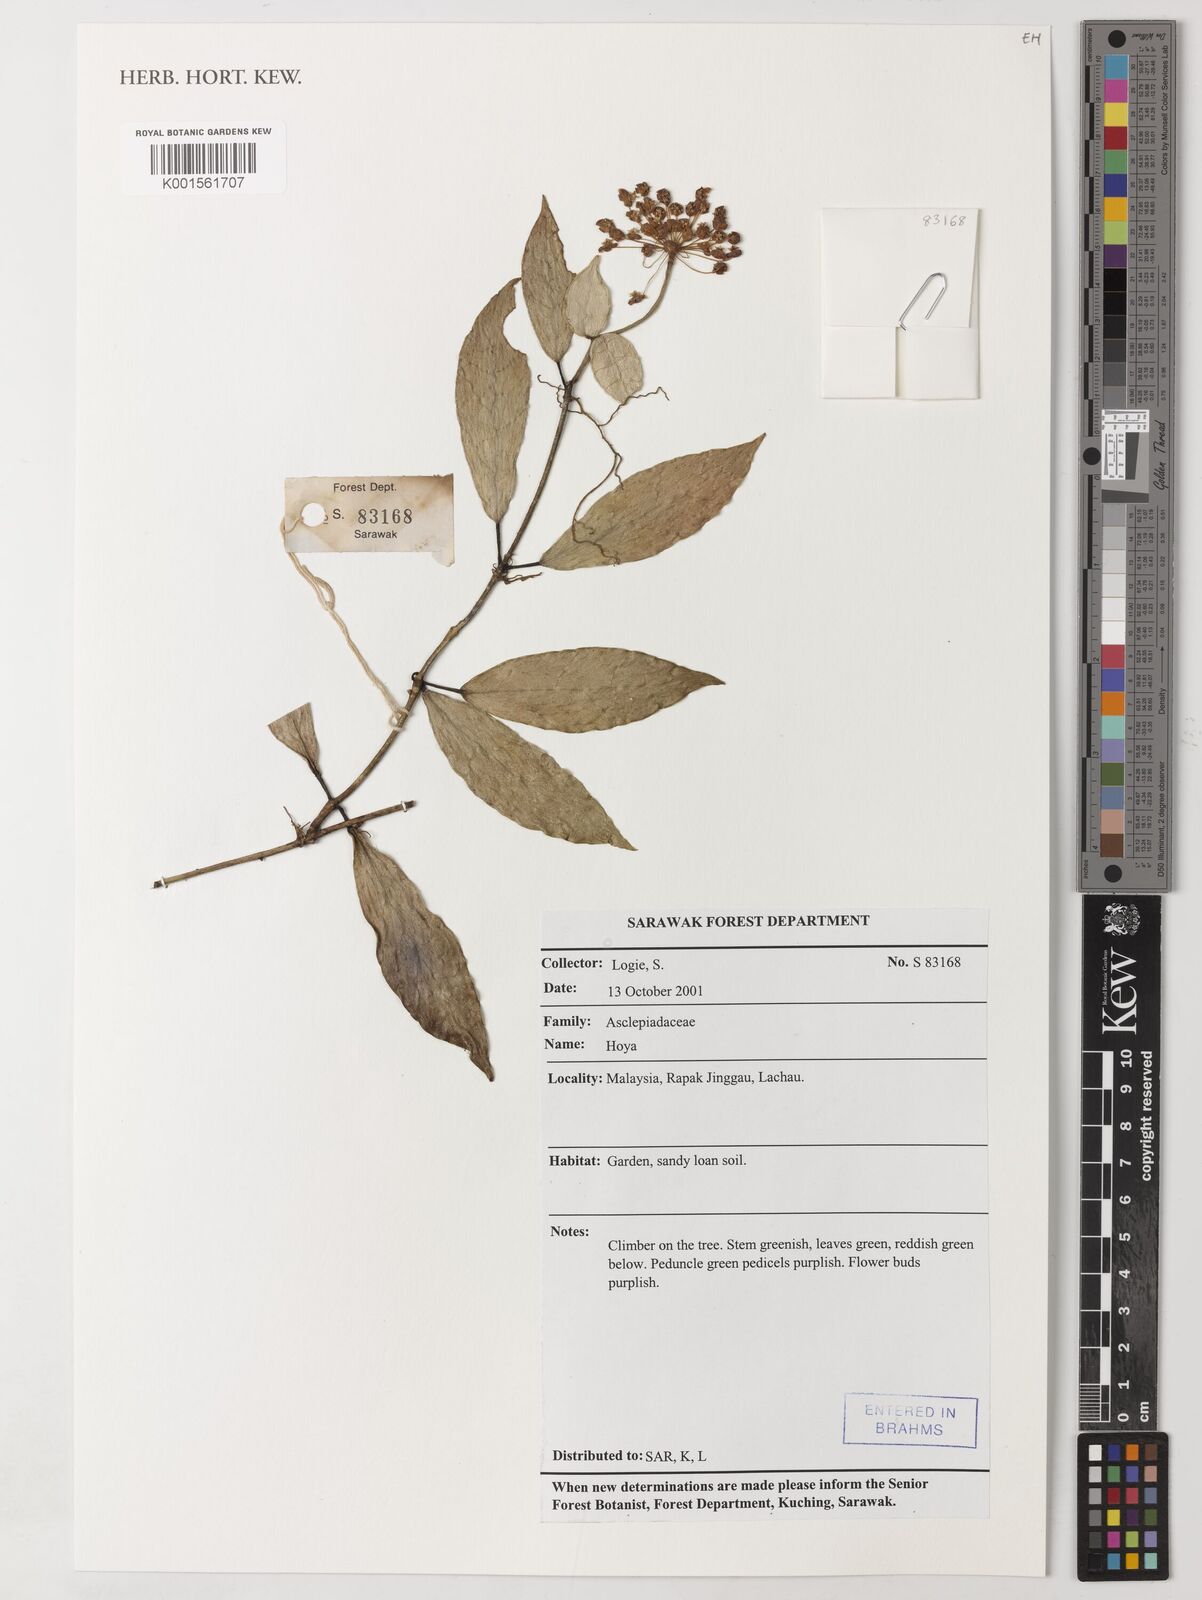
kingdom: Plantae
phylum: Tracheophyta
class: Magnoliopsida
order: Gentianales
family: Apocynaceae
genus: Hoya
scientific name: Hoya
